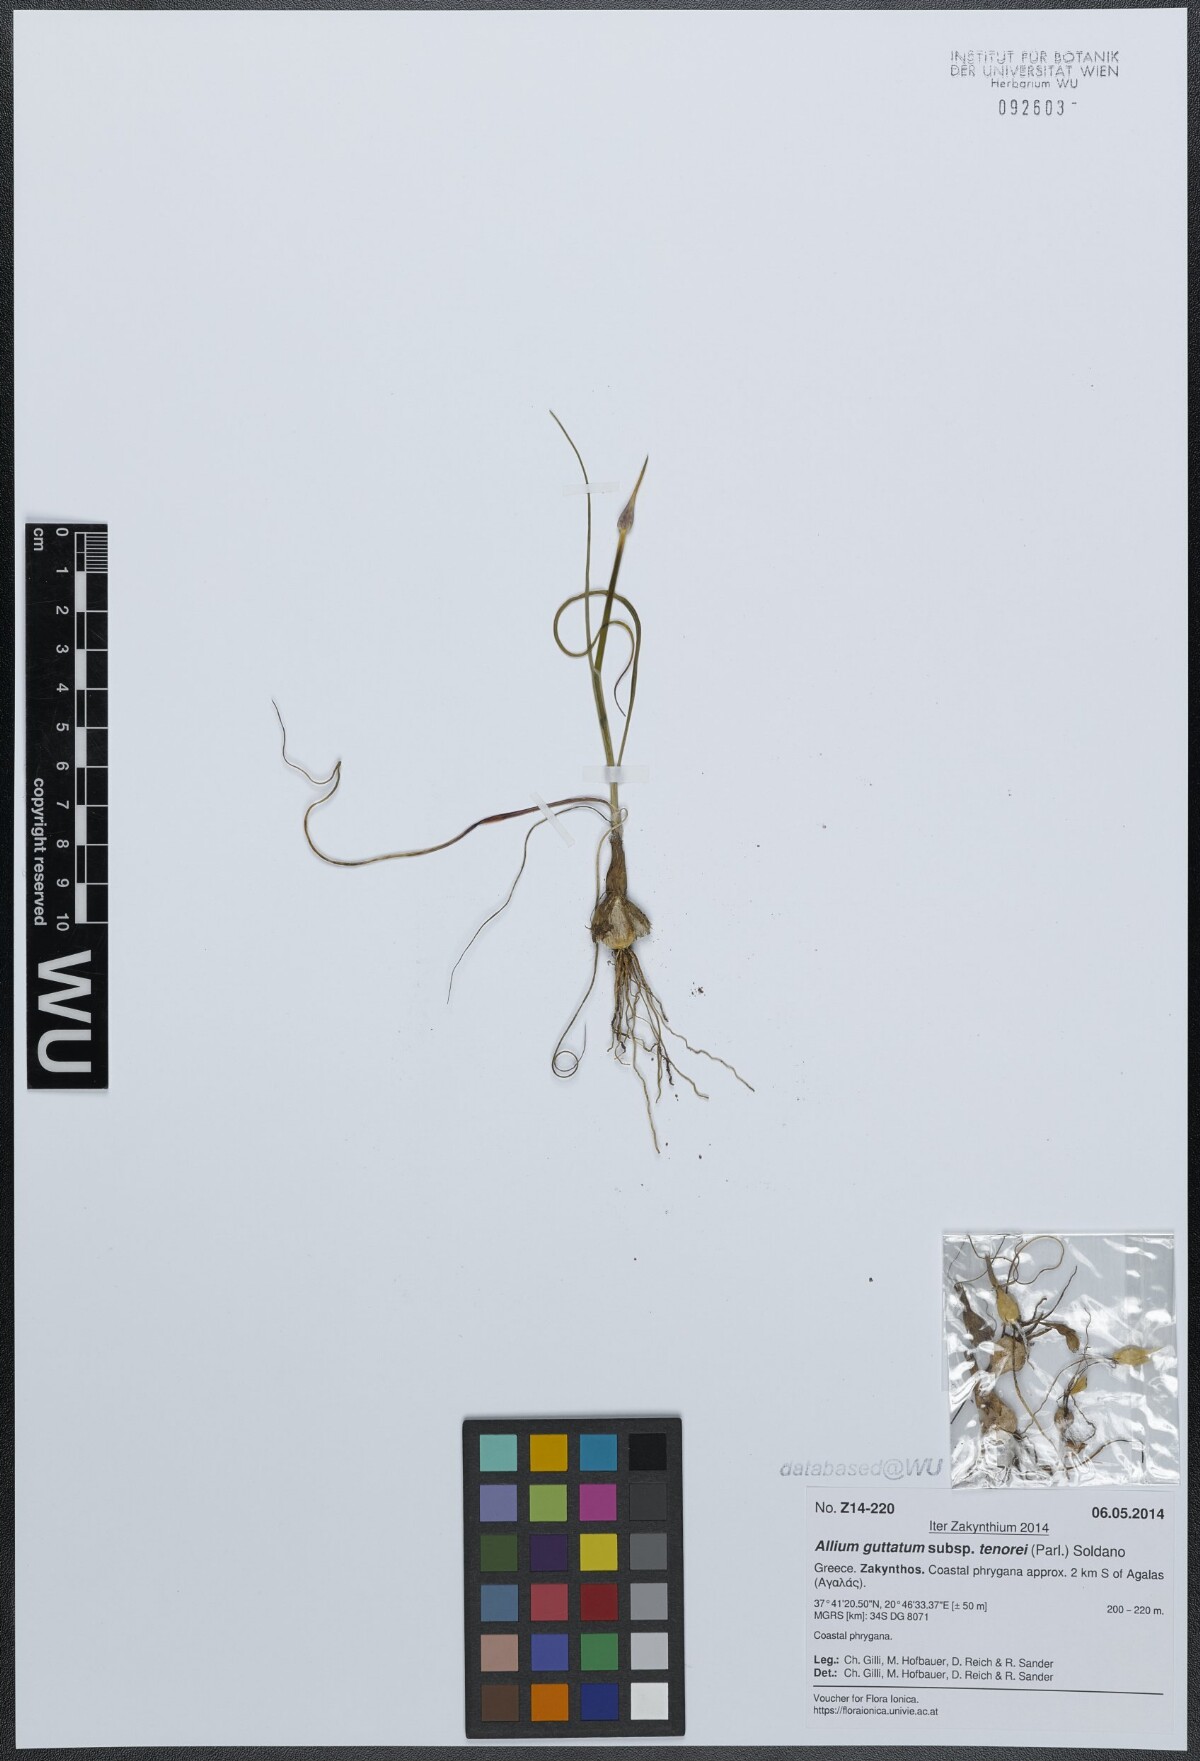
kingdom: Plantae
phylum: Tracheophyta
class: Liliopsida
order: Asparagales
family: Amaryllidaceae
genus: Allium
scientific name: Allium sardoum
